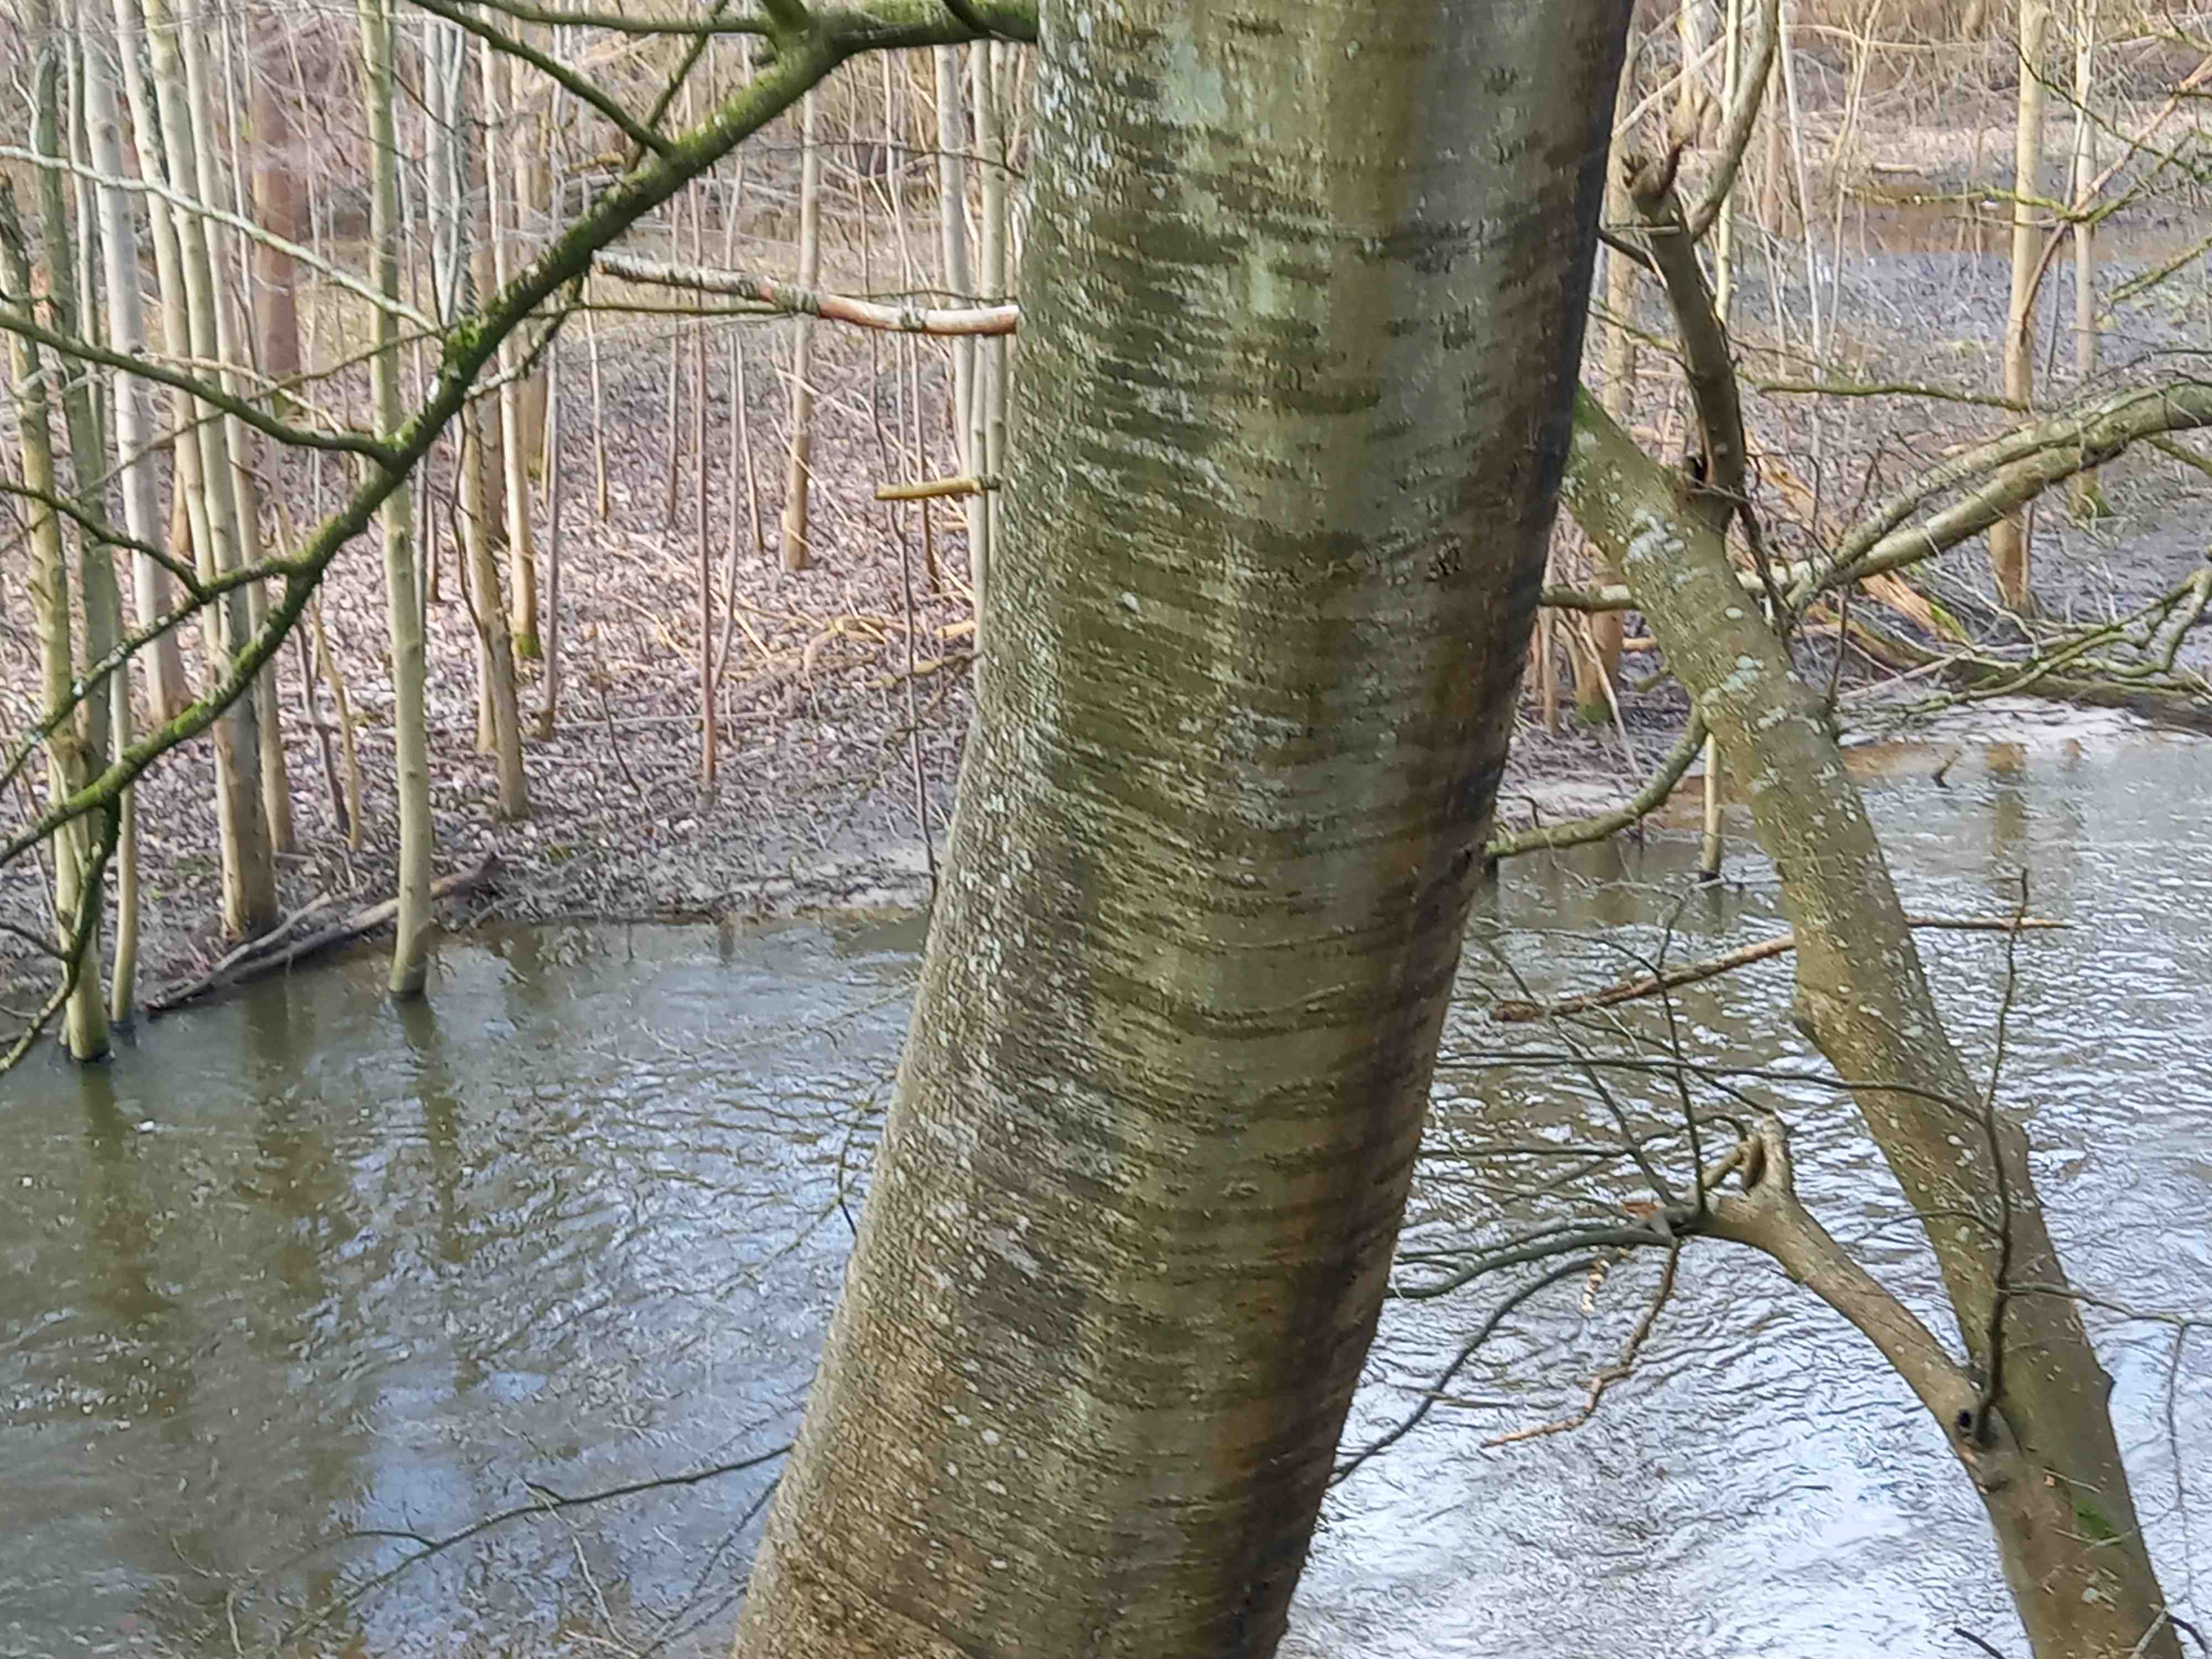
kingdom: Fungi
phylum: Ascomycota
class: Leotiomycetes
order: Rhytismatales
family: Ascodichaenaceae
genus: Ascodichaena
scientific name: Ascodichaena rugosa
